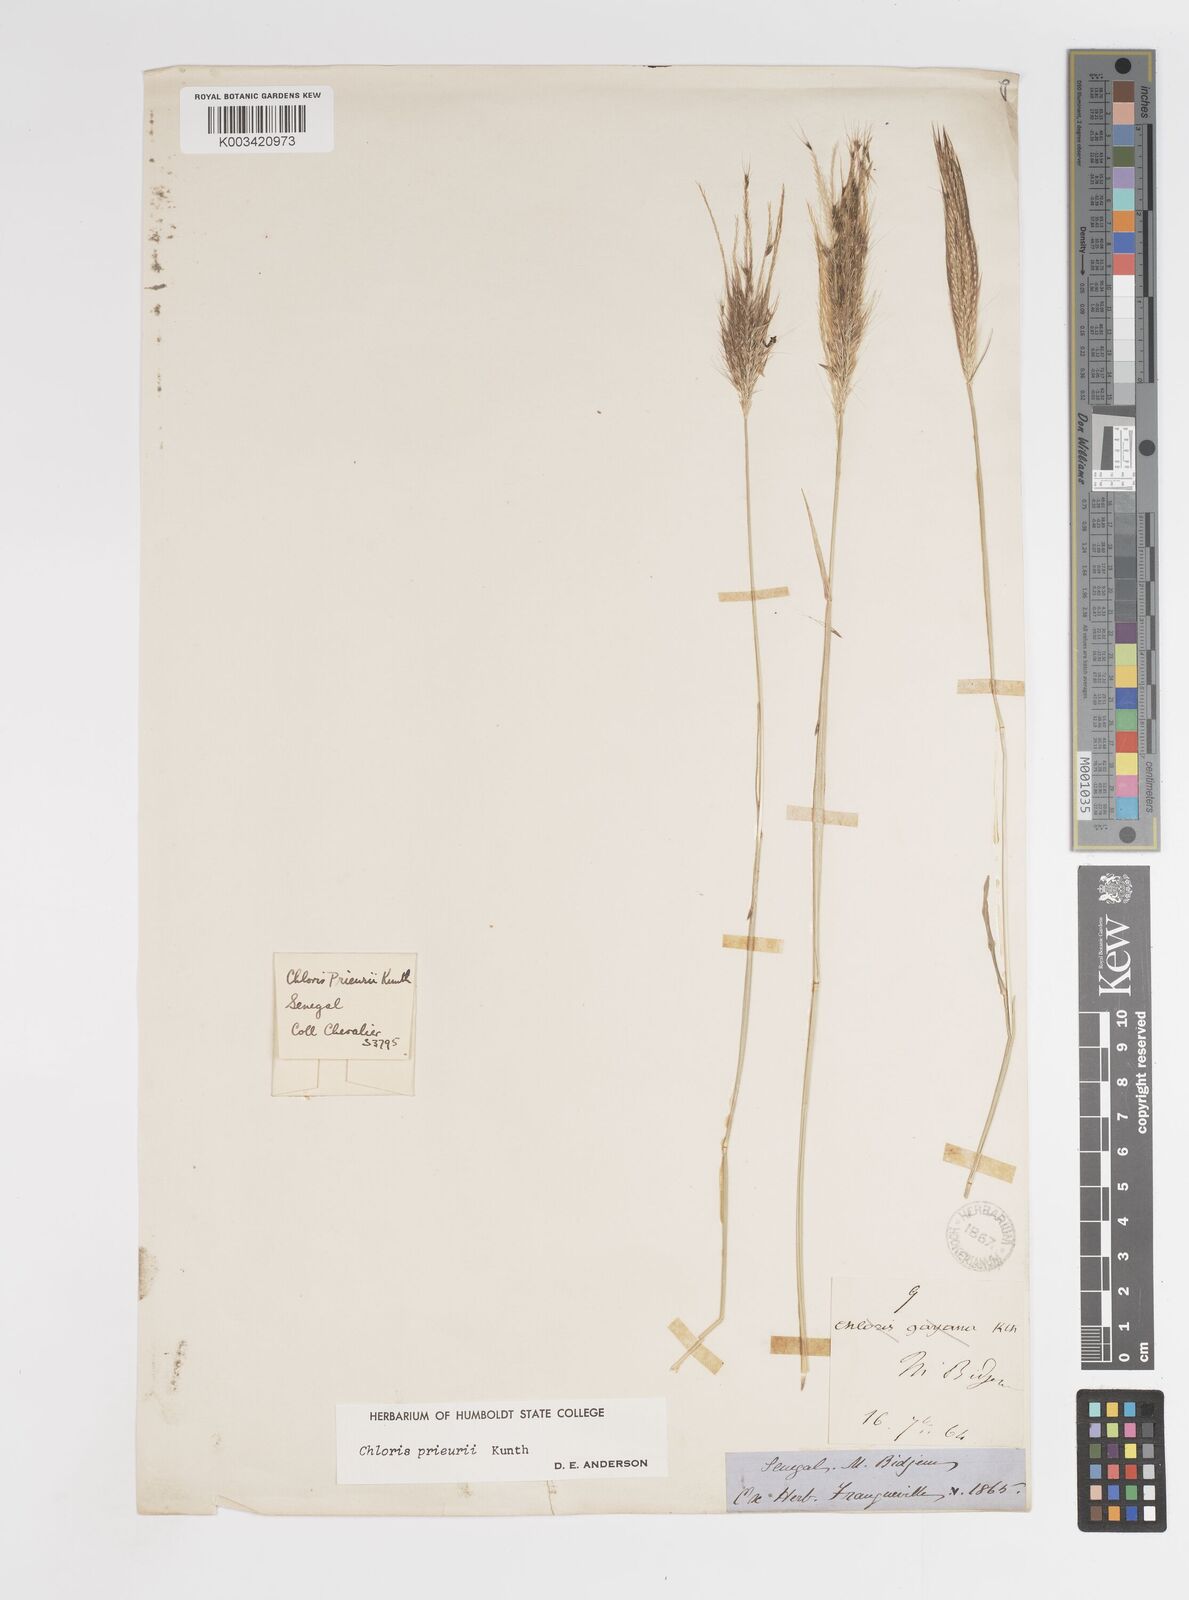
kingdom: Plantae
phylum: Tracheophyta
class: Liliopsida
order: Poales
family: Poaceae
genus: Enteropogon
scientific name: Enteropogon prieurii
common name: Prieur's umbrellagrass
